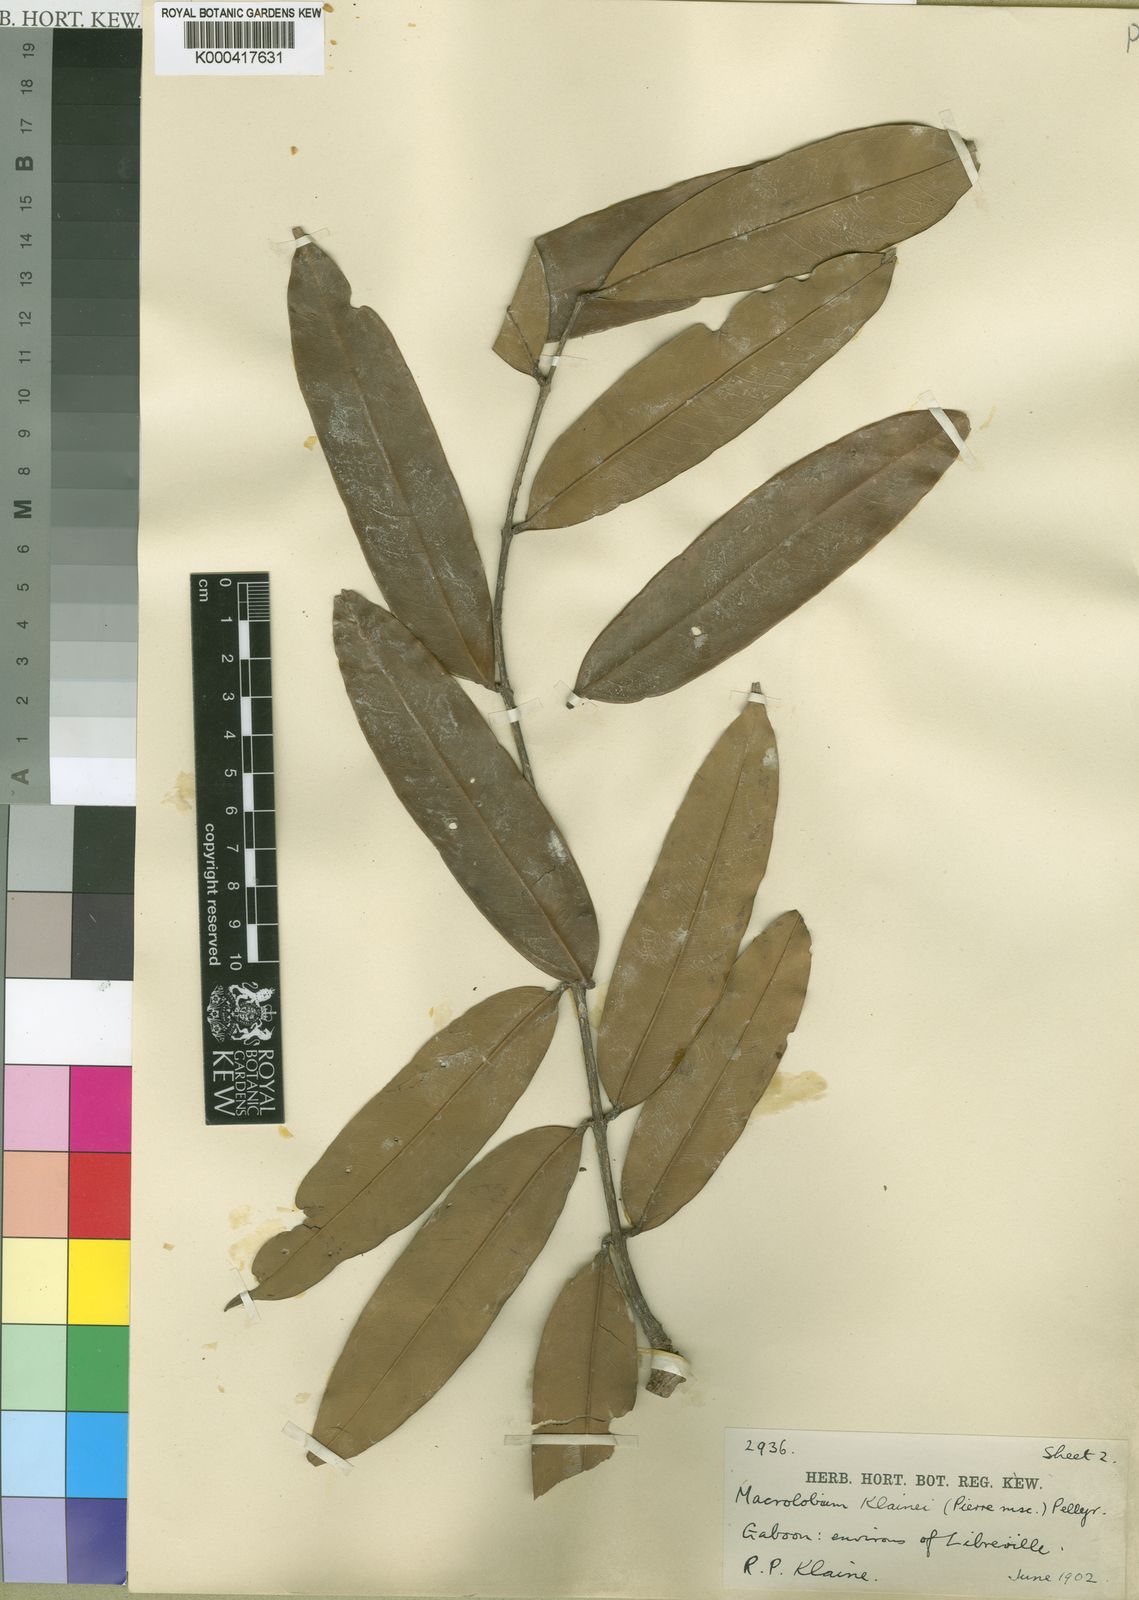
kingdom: Plantae
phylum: Tracheophyta
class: Magnoliopsida
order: Fabales
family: Fabaceae
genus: Gilbertiodendron
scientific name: Gilbertiodendron
